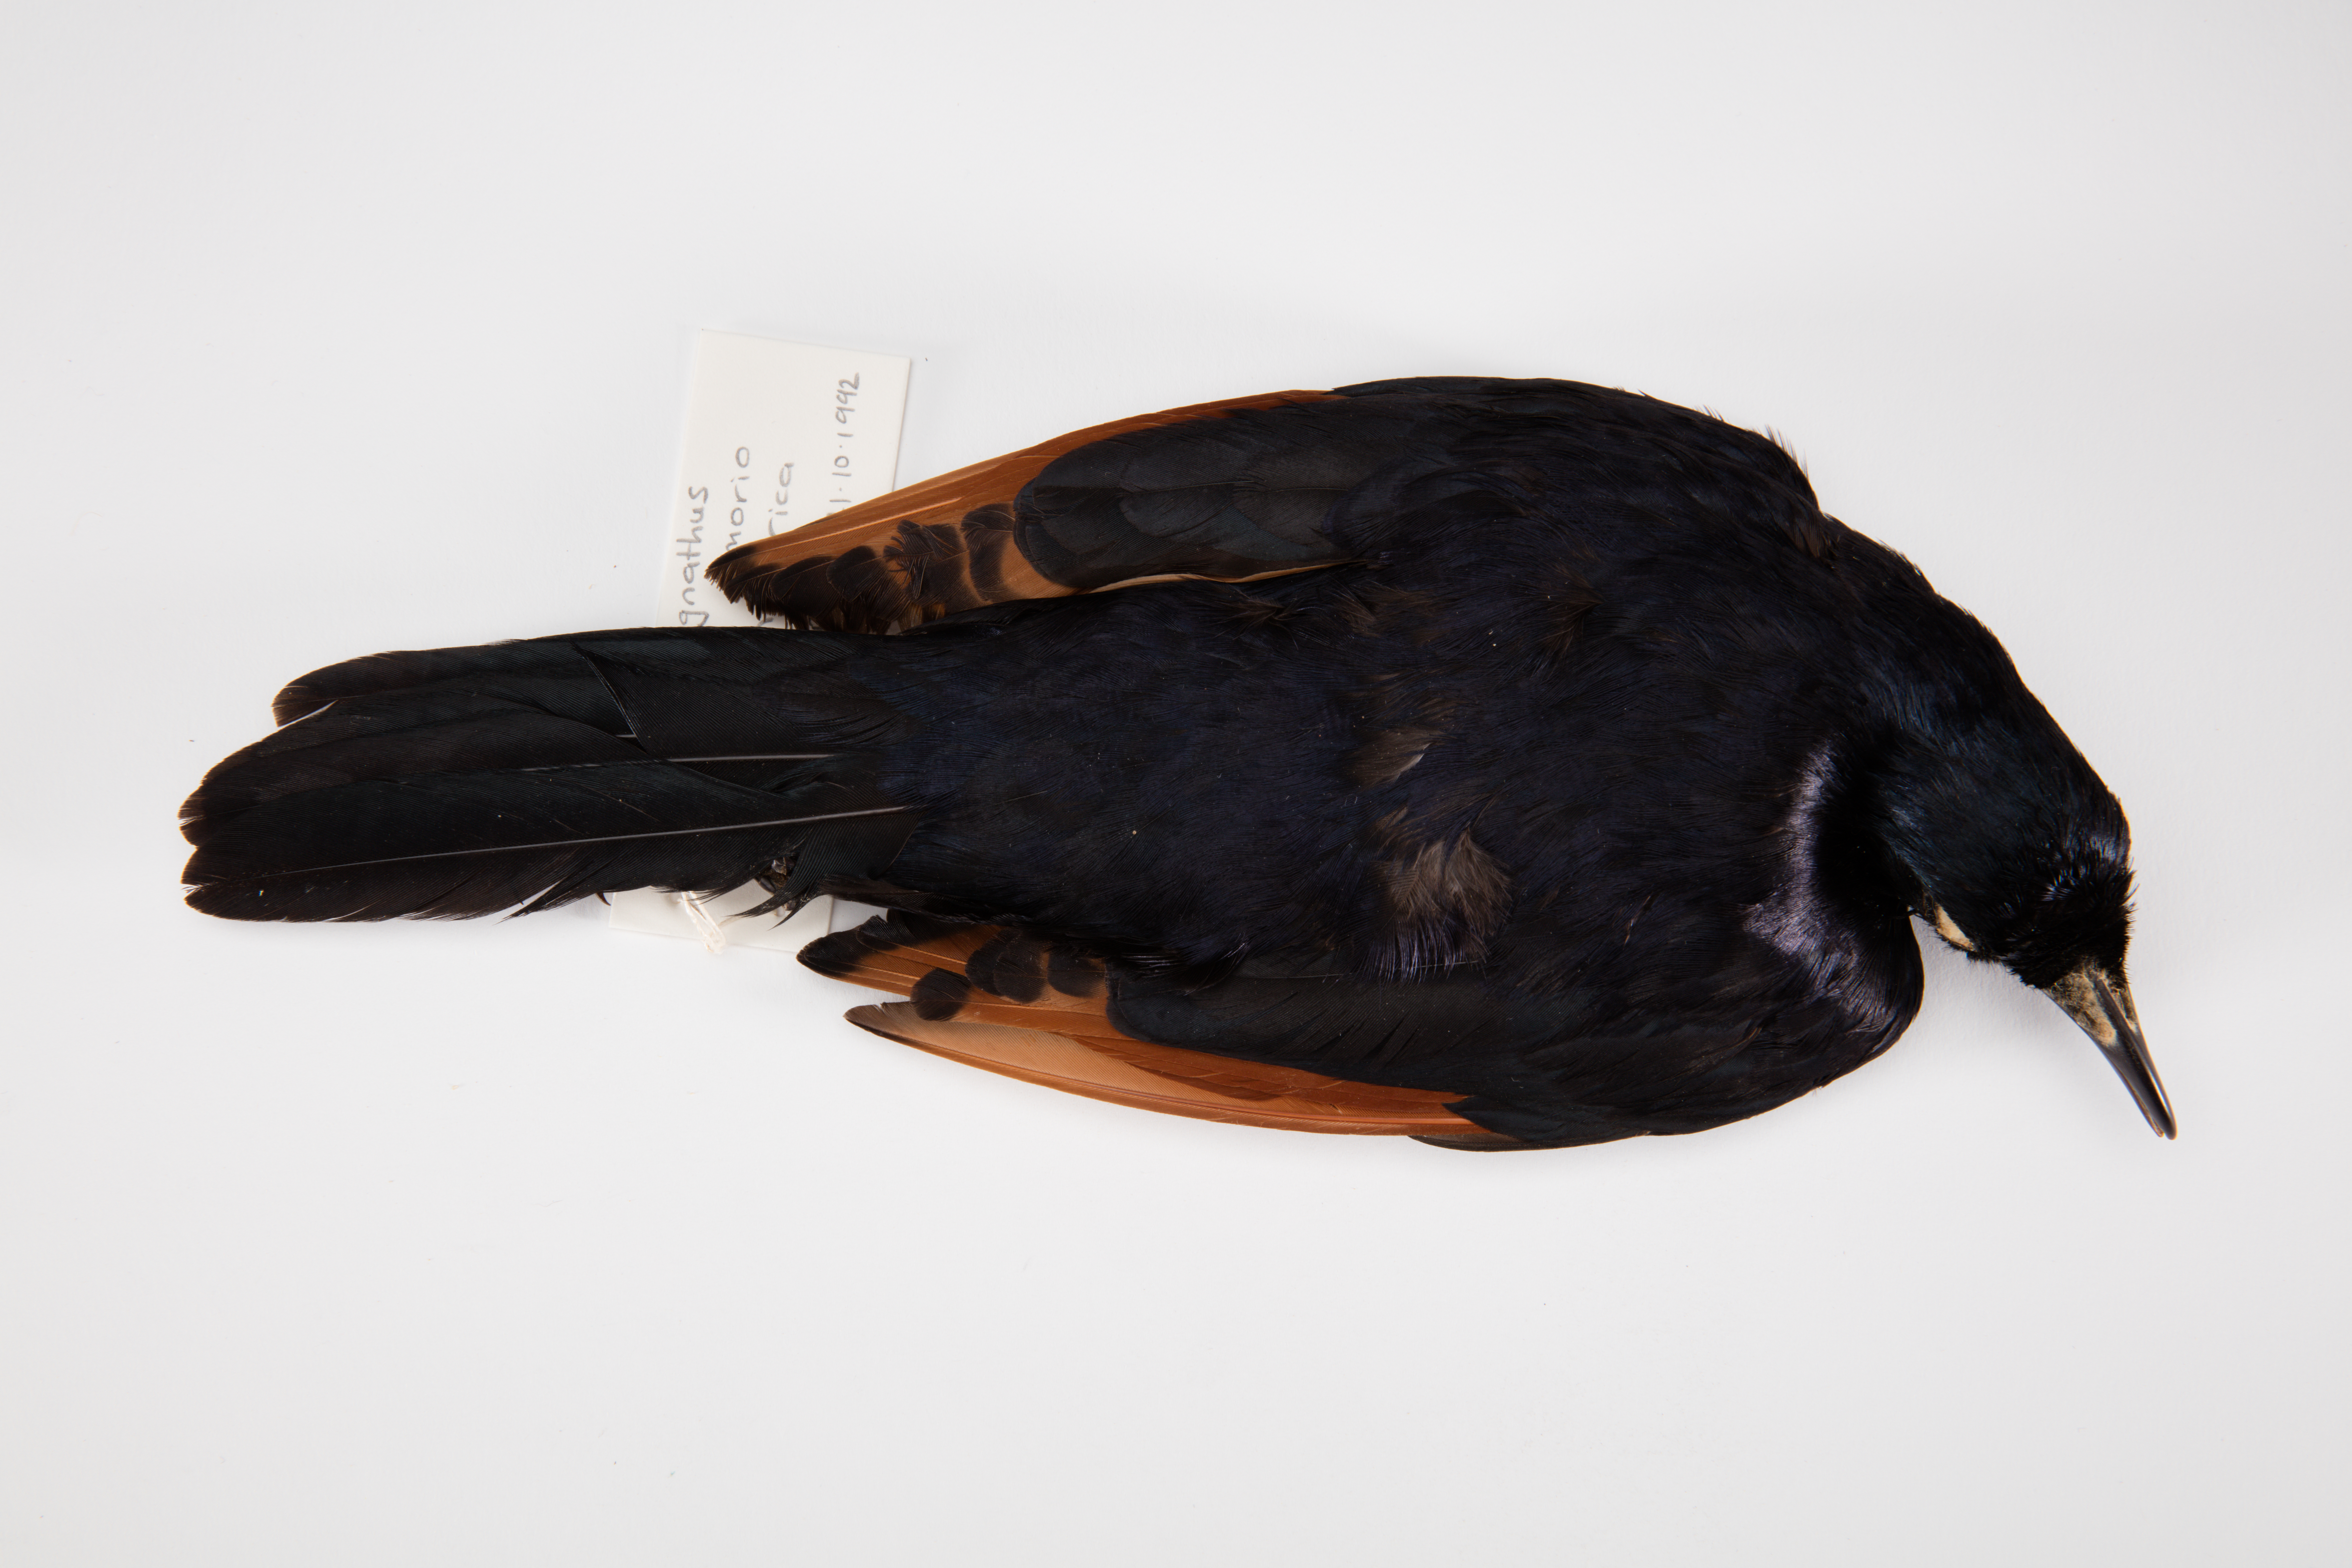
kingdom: Animalia
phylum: Chordata
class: Aves
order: Passeriformes
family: Sturnidae
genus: Onychognathus
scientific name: Onychognathus morio
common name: Red-winged starling
